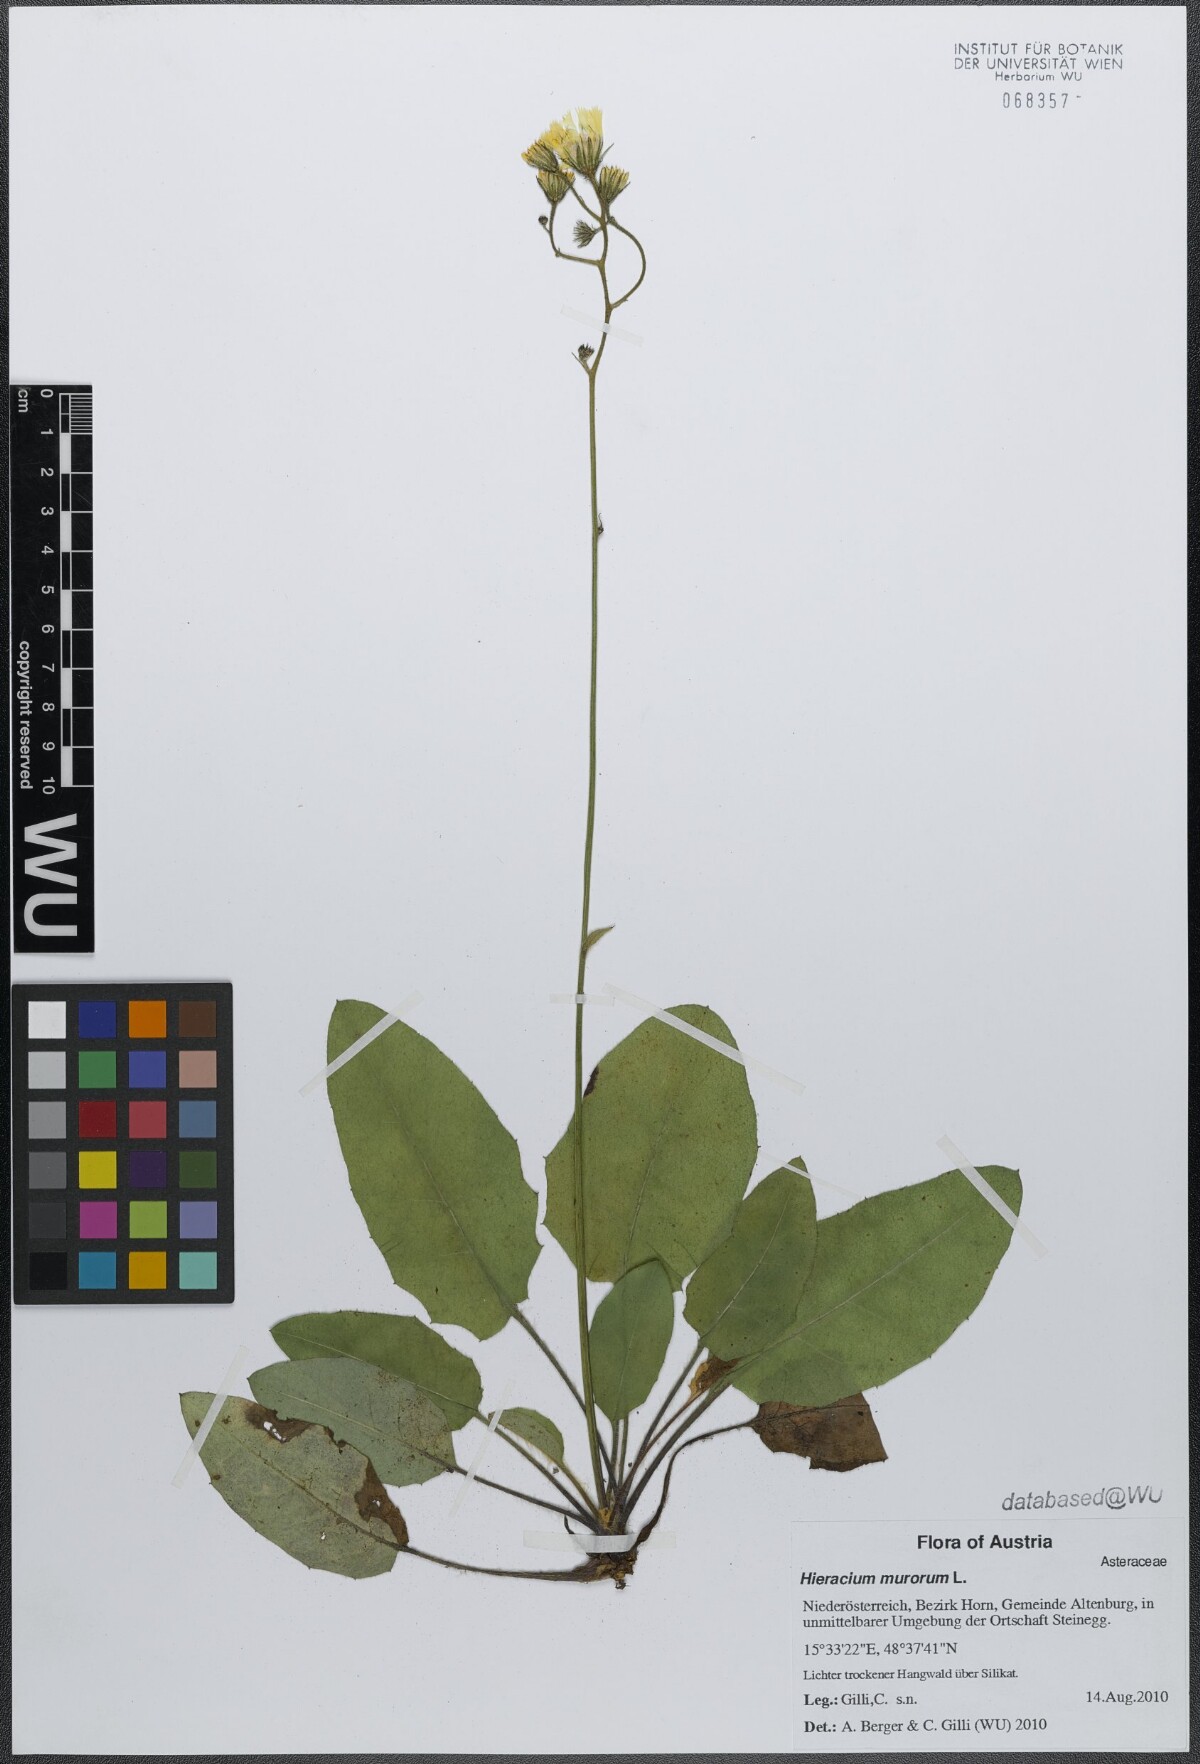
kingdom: Plantae
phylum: Tracheophyta
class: Magnoliopsida
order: Asterales
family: Asteraceae
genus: Hieracium
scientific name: Hieracium murorum
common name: Wall hawkweed
